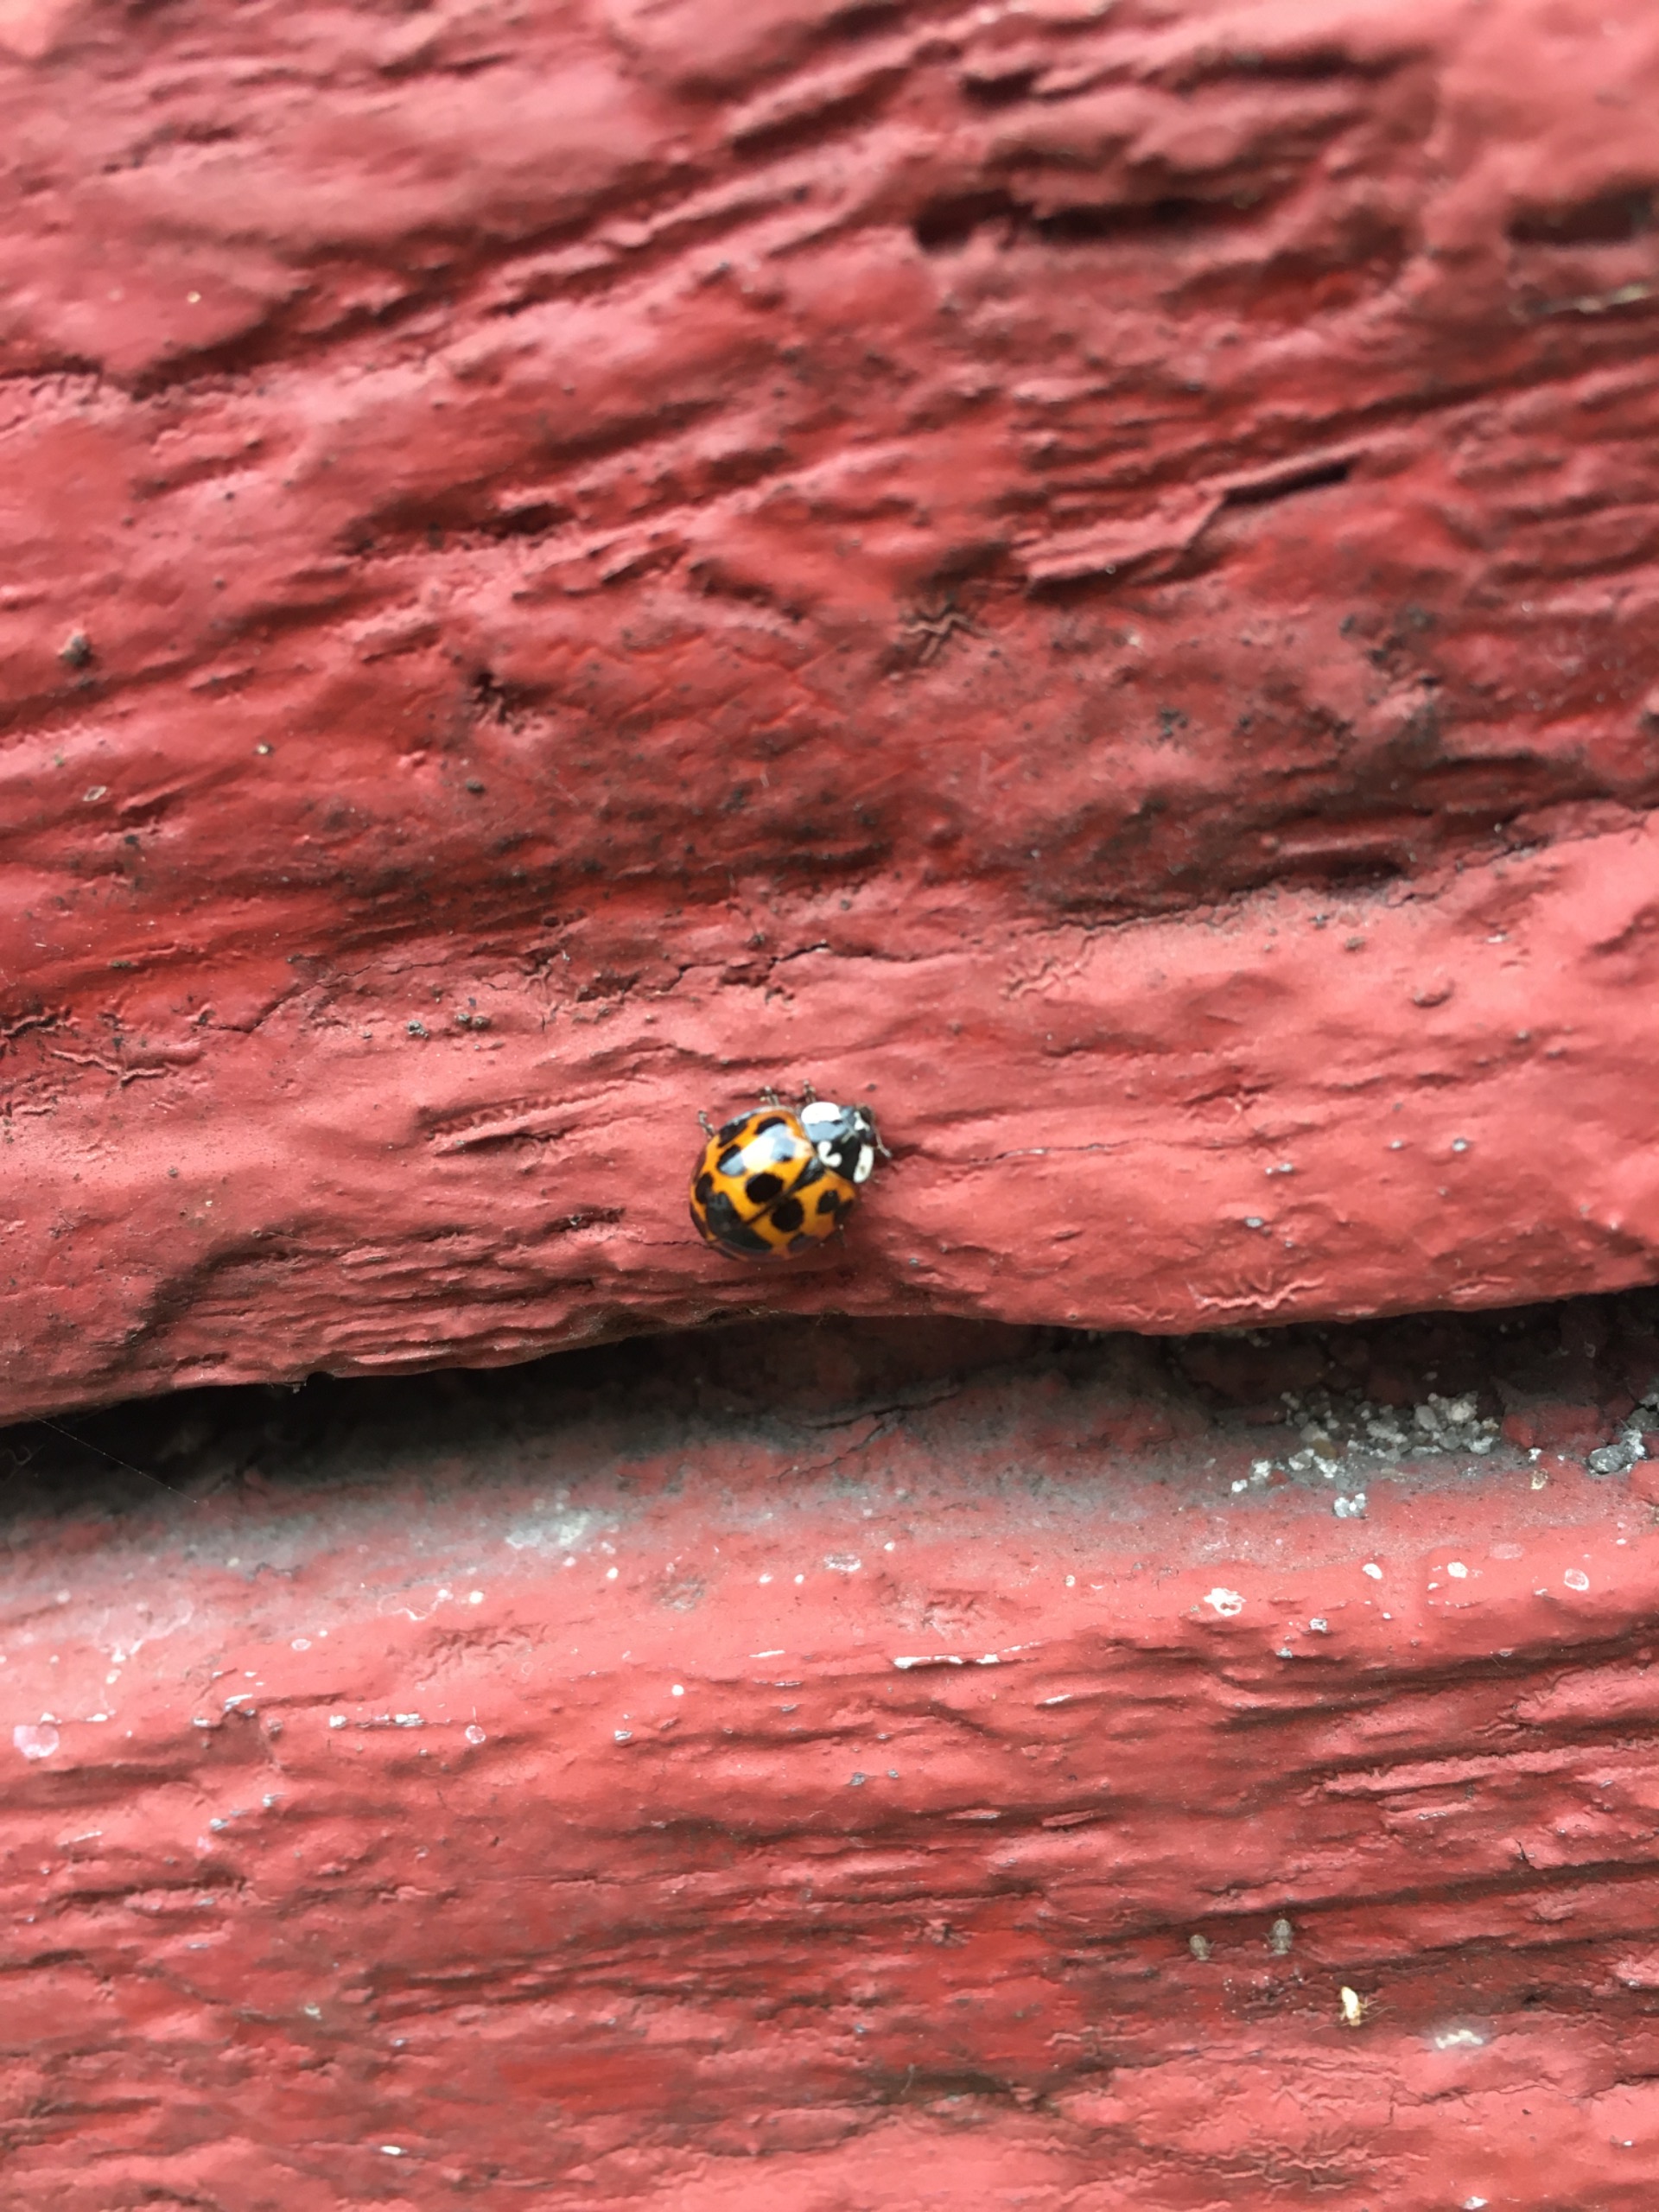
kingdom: Animalia
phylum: Arthropoda
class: Insecta
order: Coleoptera
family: Coccinellidae
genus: Harmonia
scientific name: Harmonia axyridis
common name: Harlekinmariehøne
